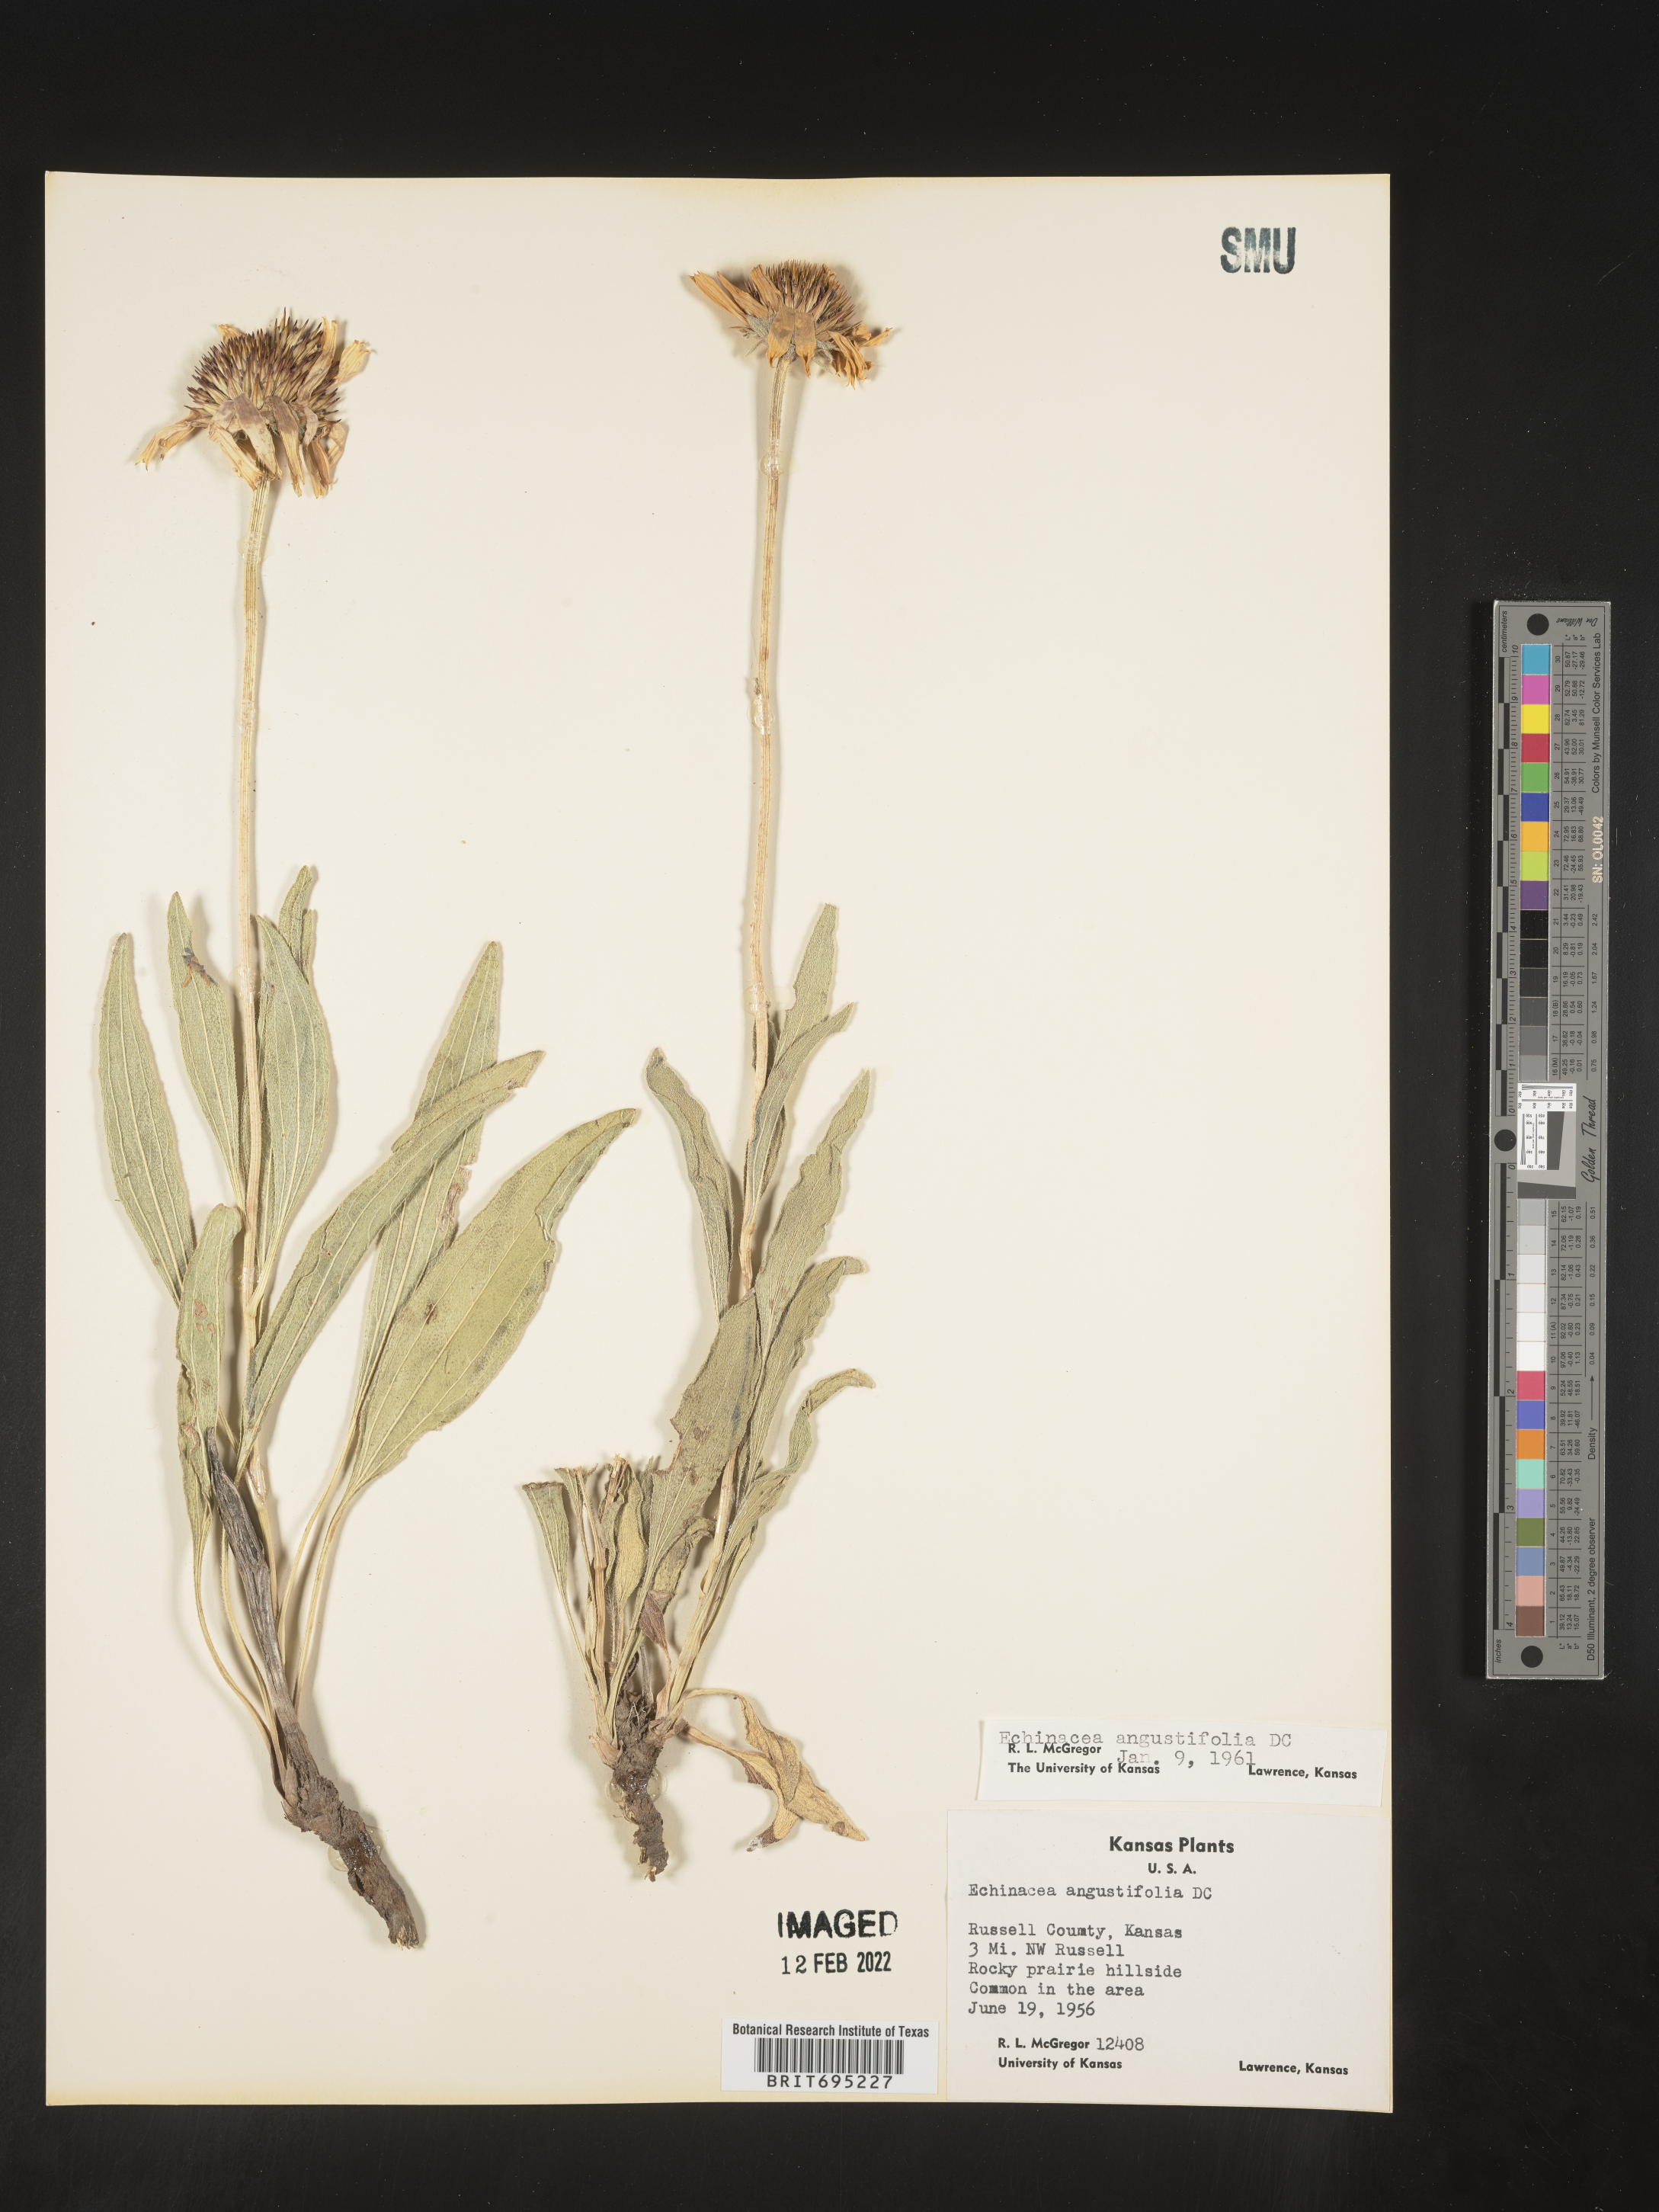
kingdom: Plantae
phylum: Tracheophyta
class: Magnoliopsida
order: Asterales
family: Asteraceae
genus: Echinacea
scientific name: Echinacea angustifolia
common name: Black-sampson echinacea
